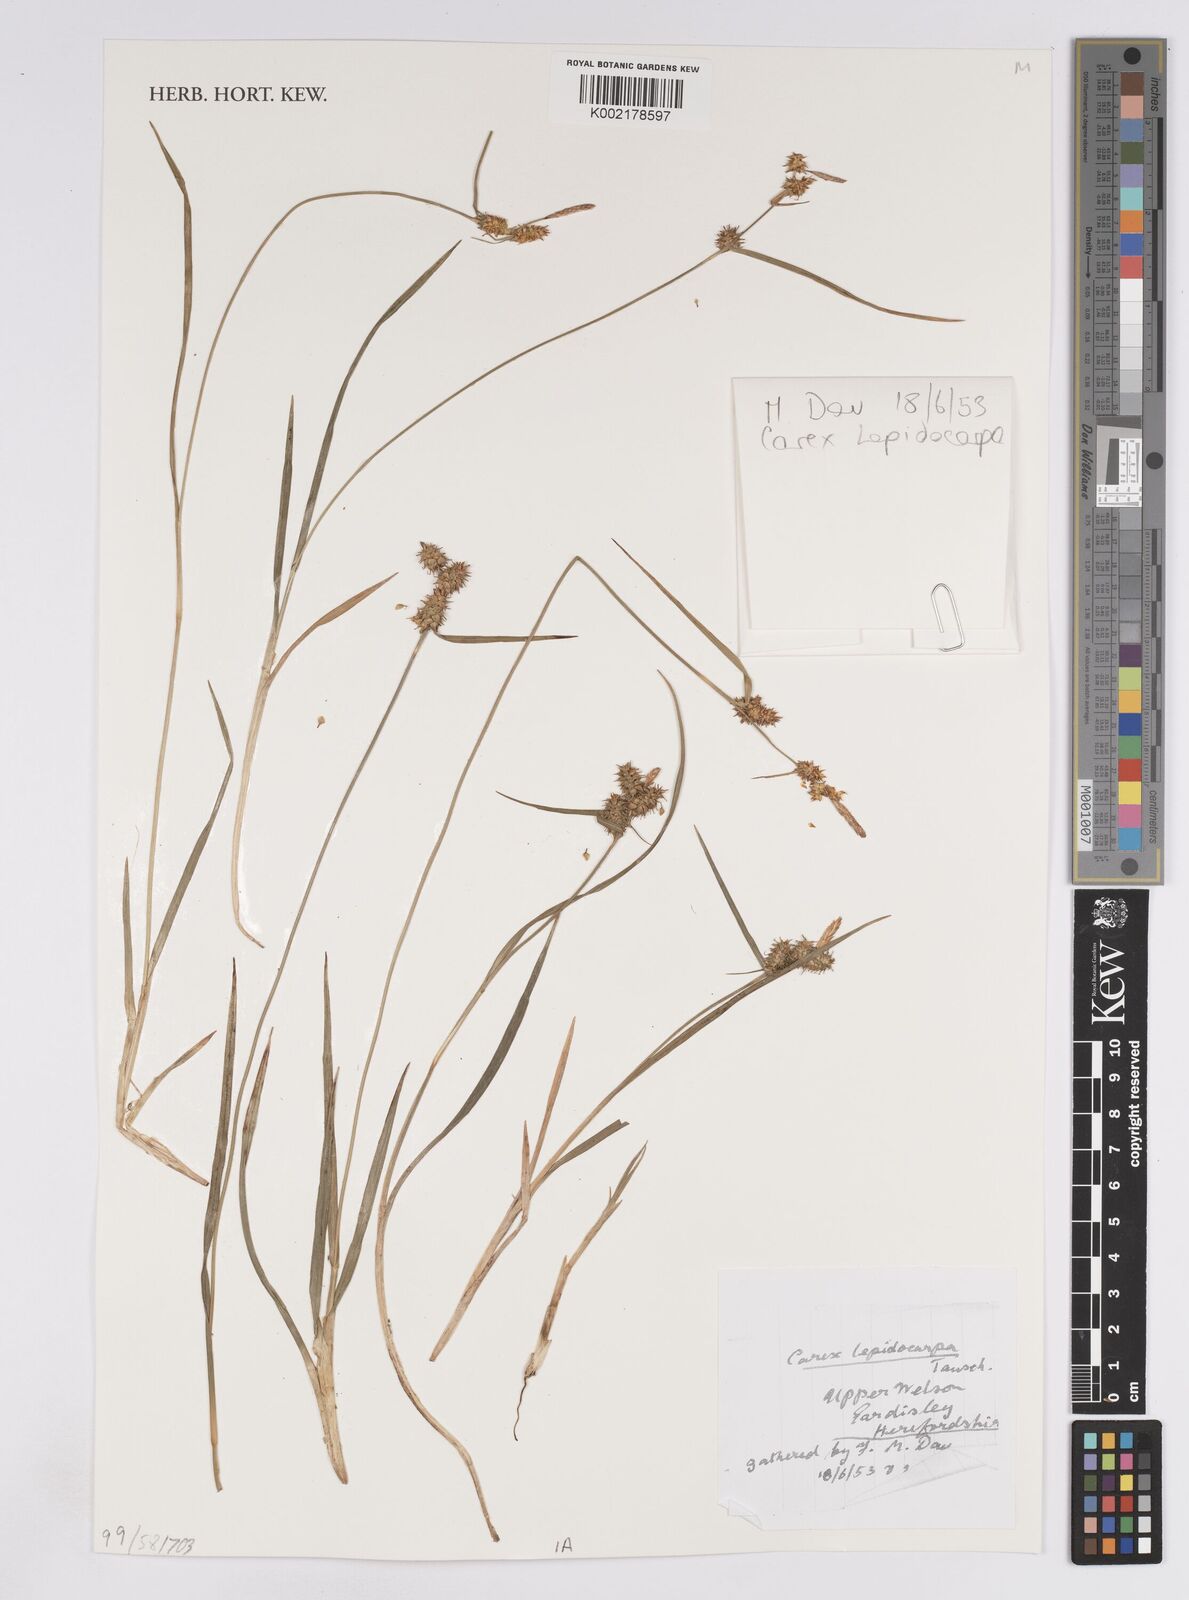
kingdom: Plantae
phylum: Tracheophyta
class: Liliopsida
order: Poales
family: Cyperaceae
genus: Carex
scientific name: Carex lepidocarpa
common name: Long-stalked yellow-sedge
